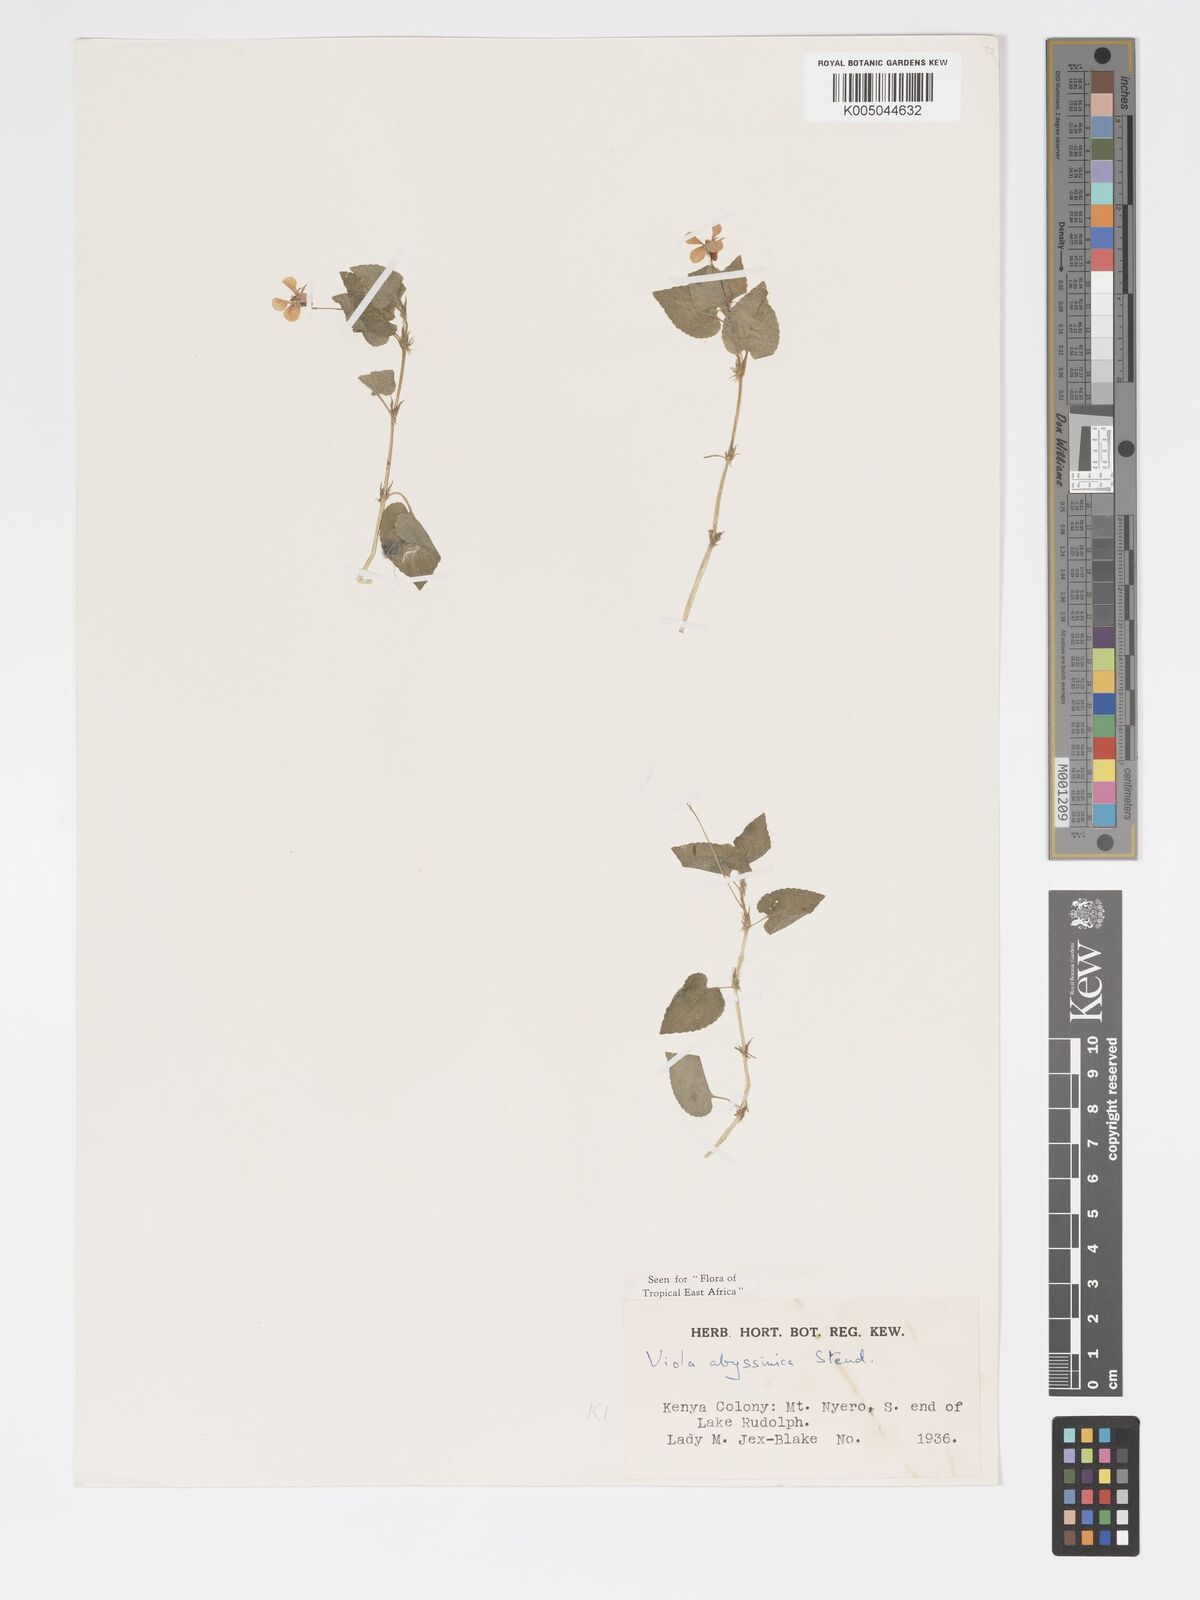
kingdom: Plantae
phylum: Tracheophyta
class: Magnoliopsida
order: Malpighiales
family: Violaceae
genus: Viola
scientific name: Viola abyssinica
